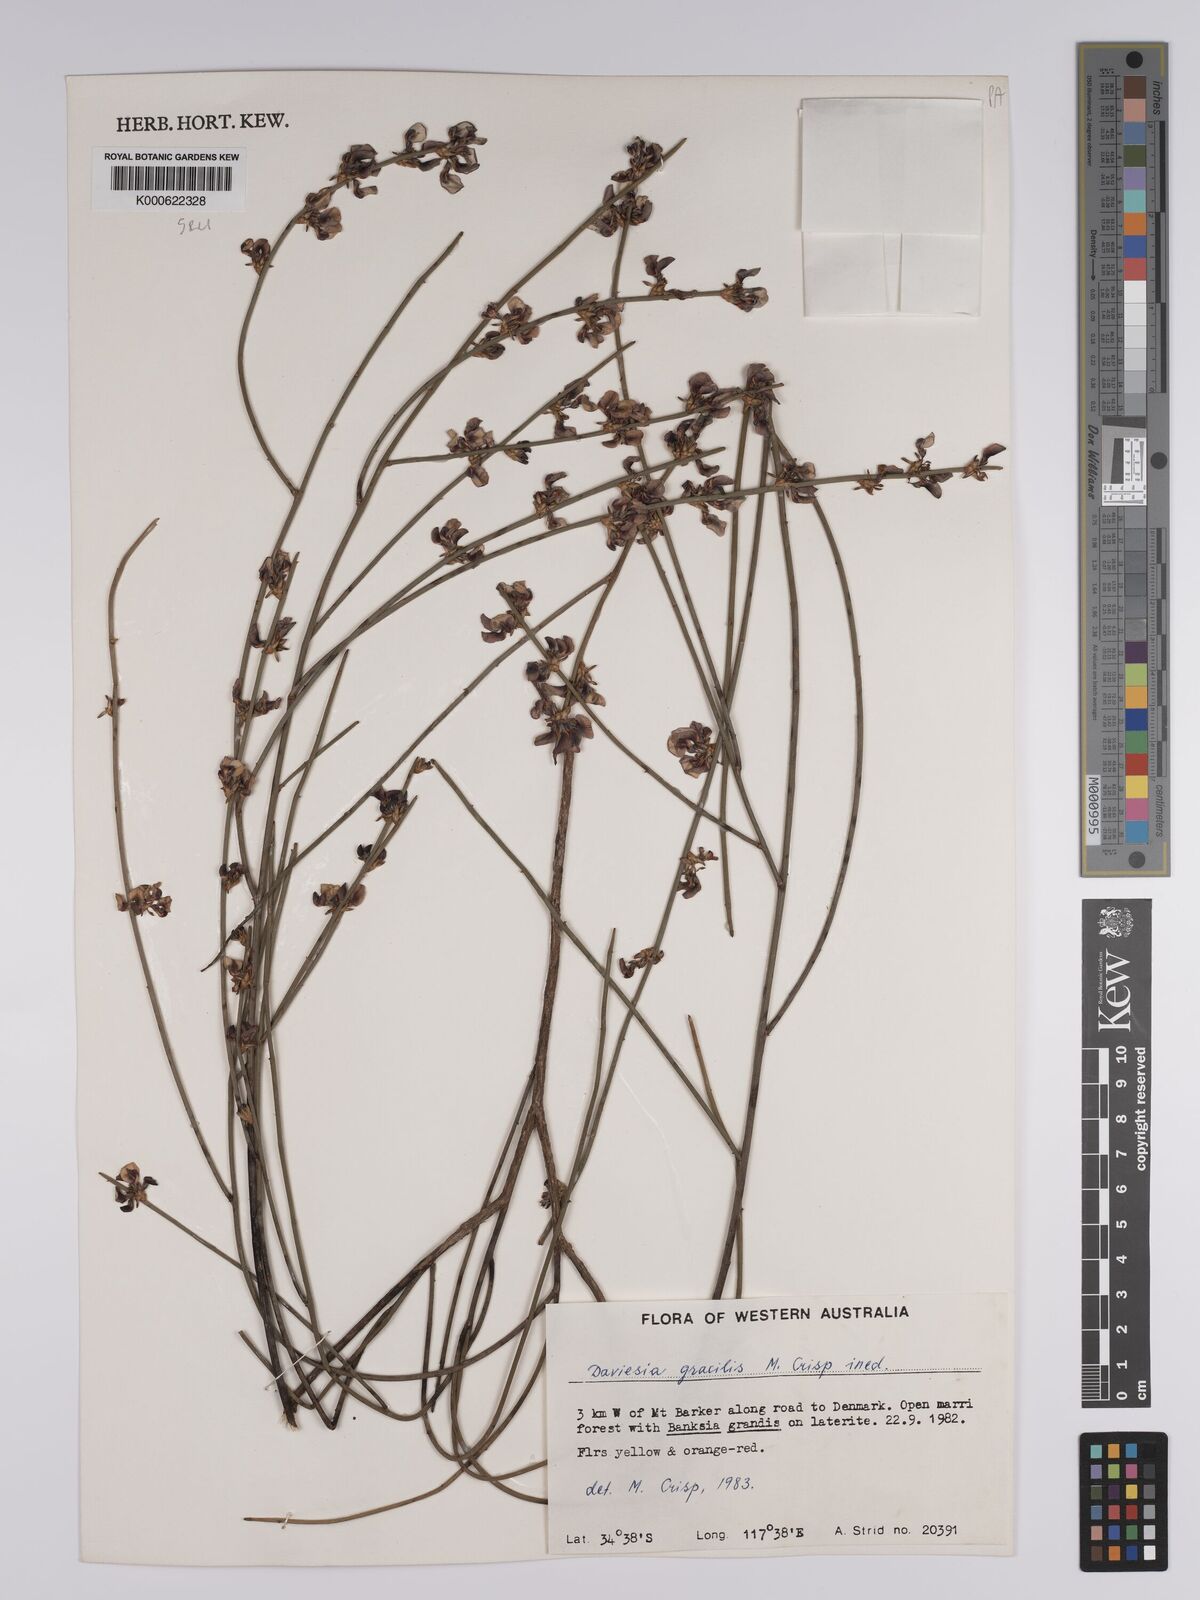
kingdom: Plantae
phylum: Tracheophyta
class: Magnoliopsida
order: Fabales
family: Fabaceae
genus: Daviesia
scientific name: Daviesia gracilis
